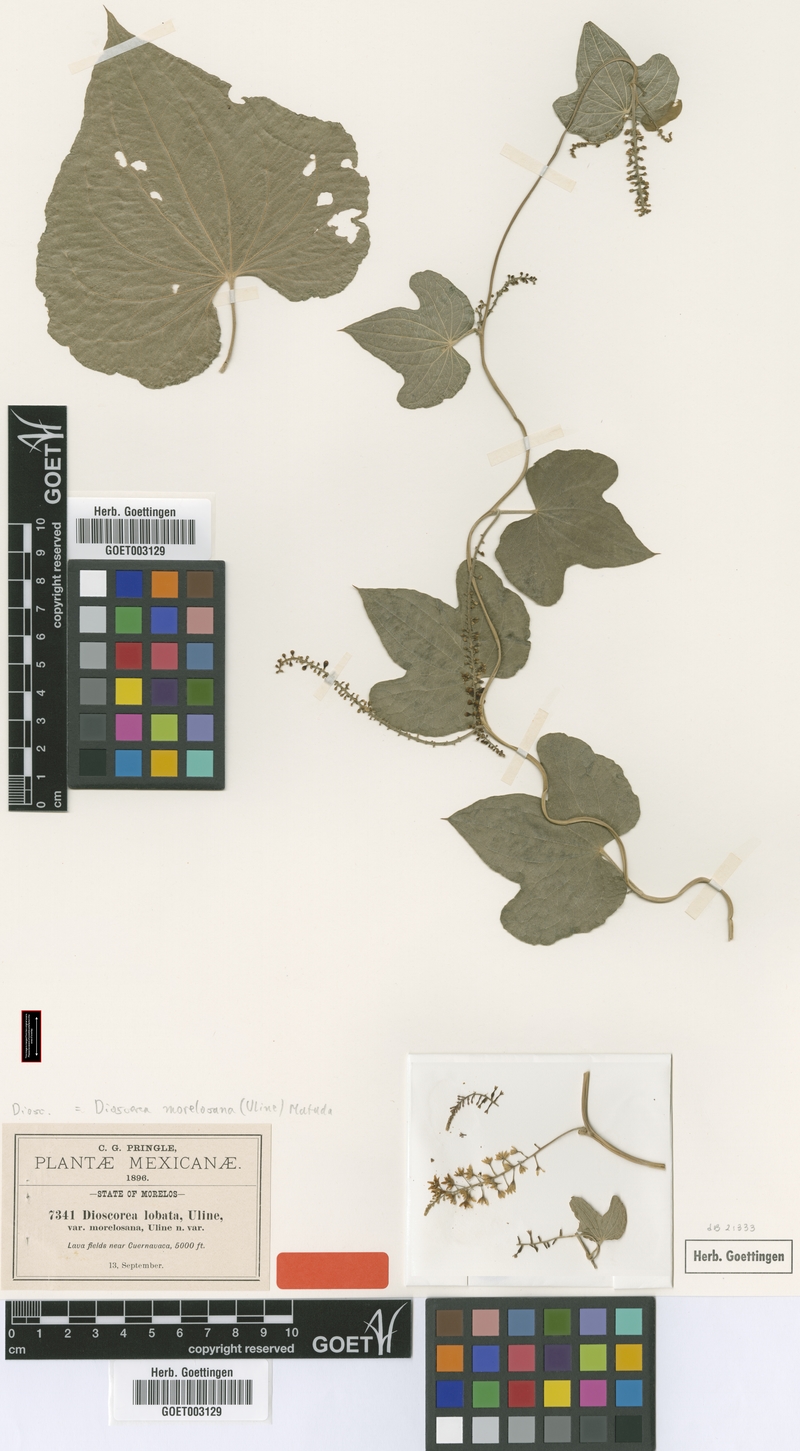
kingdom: Plantae
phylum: Tracheophyta
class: Liliopsida
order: Dioscoreales
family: Dioscoreaceae
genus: Dioscorea
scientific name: Dioscorea morelosana
